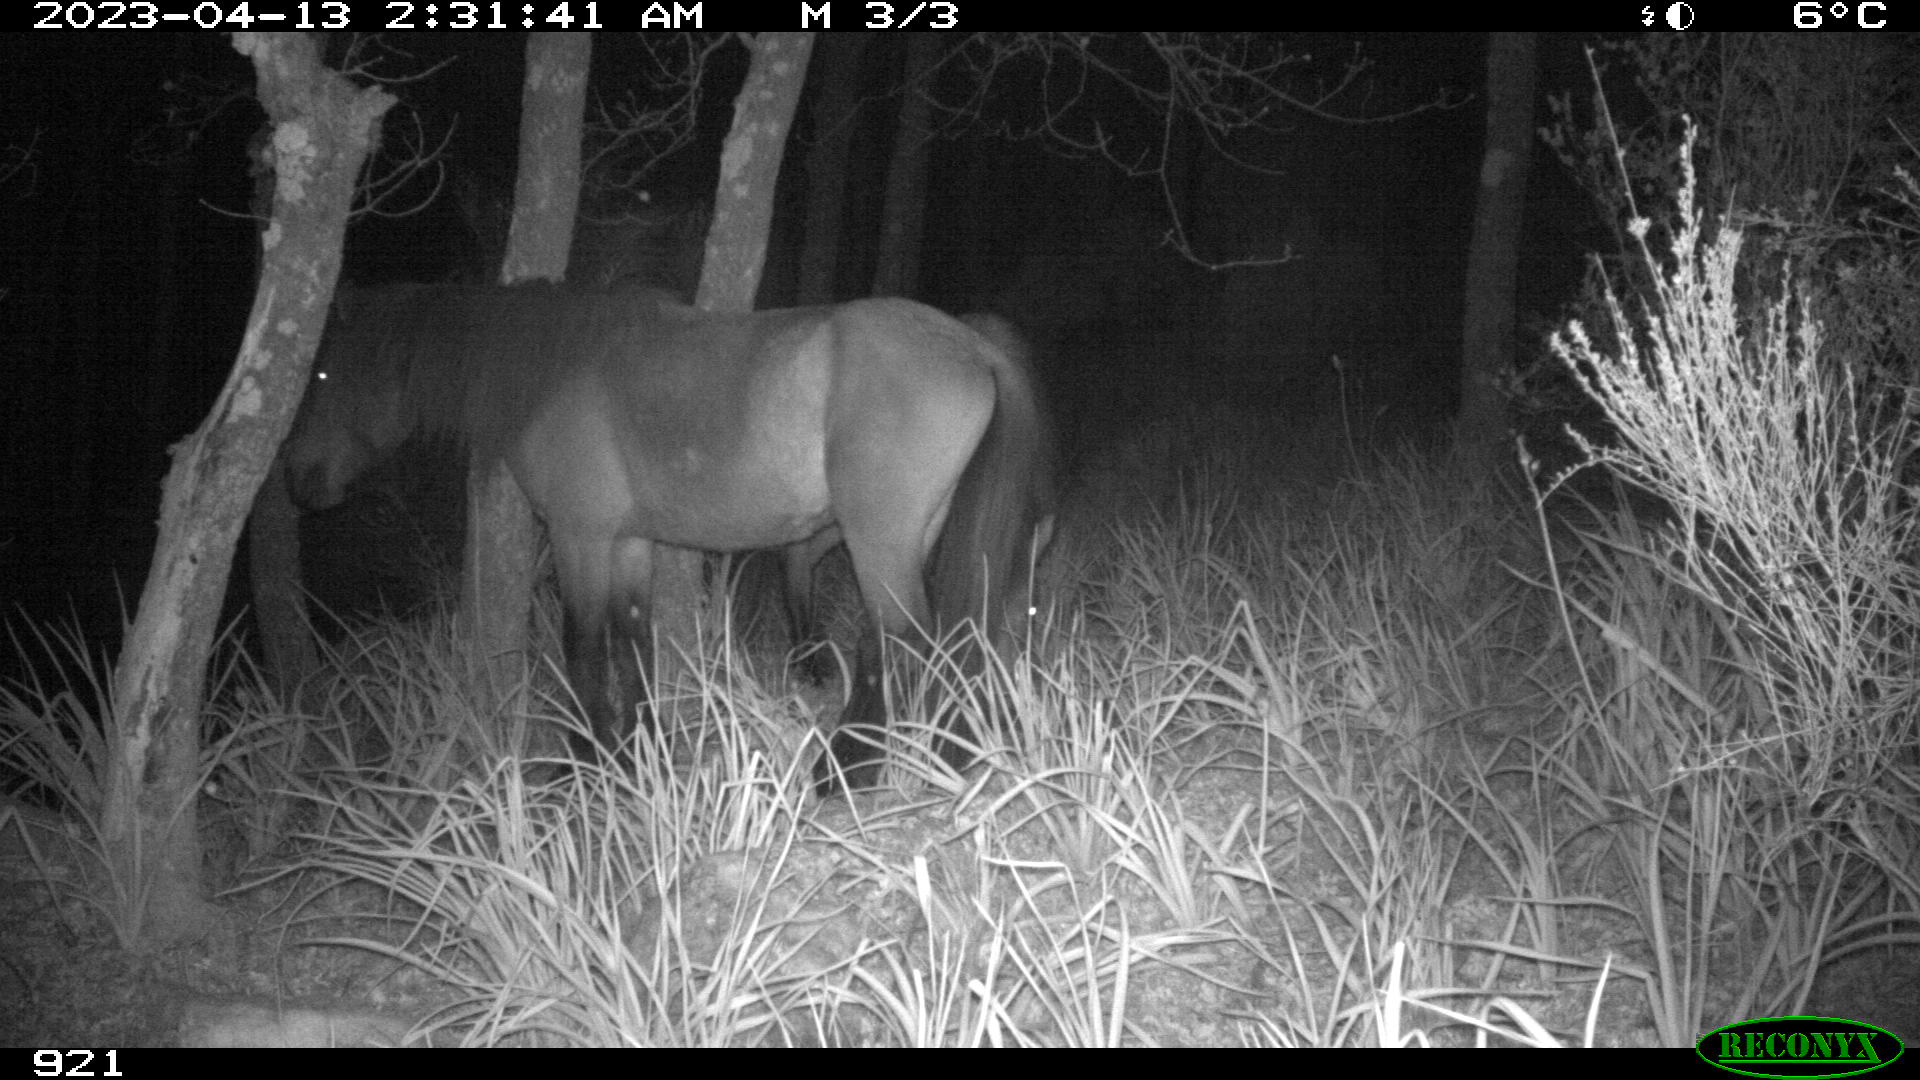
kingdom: Animalia
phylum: Chordata
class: Mammalia
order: Perissodactyla
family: Equidae
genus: Equus
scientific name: Equus caballus
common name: Horse
